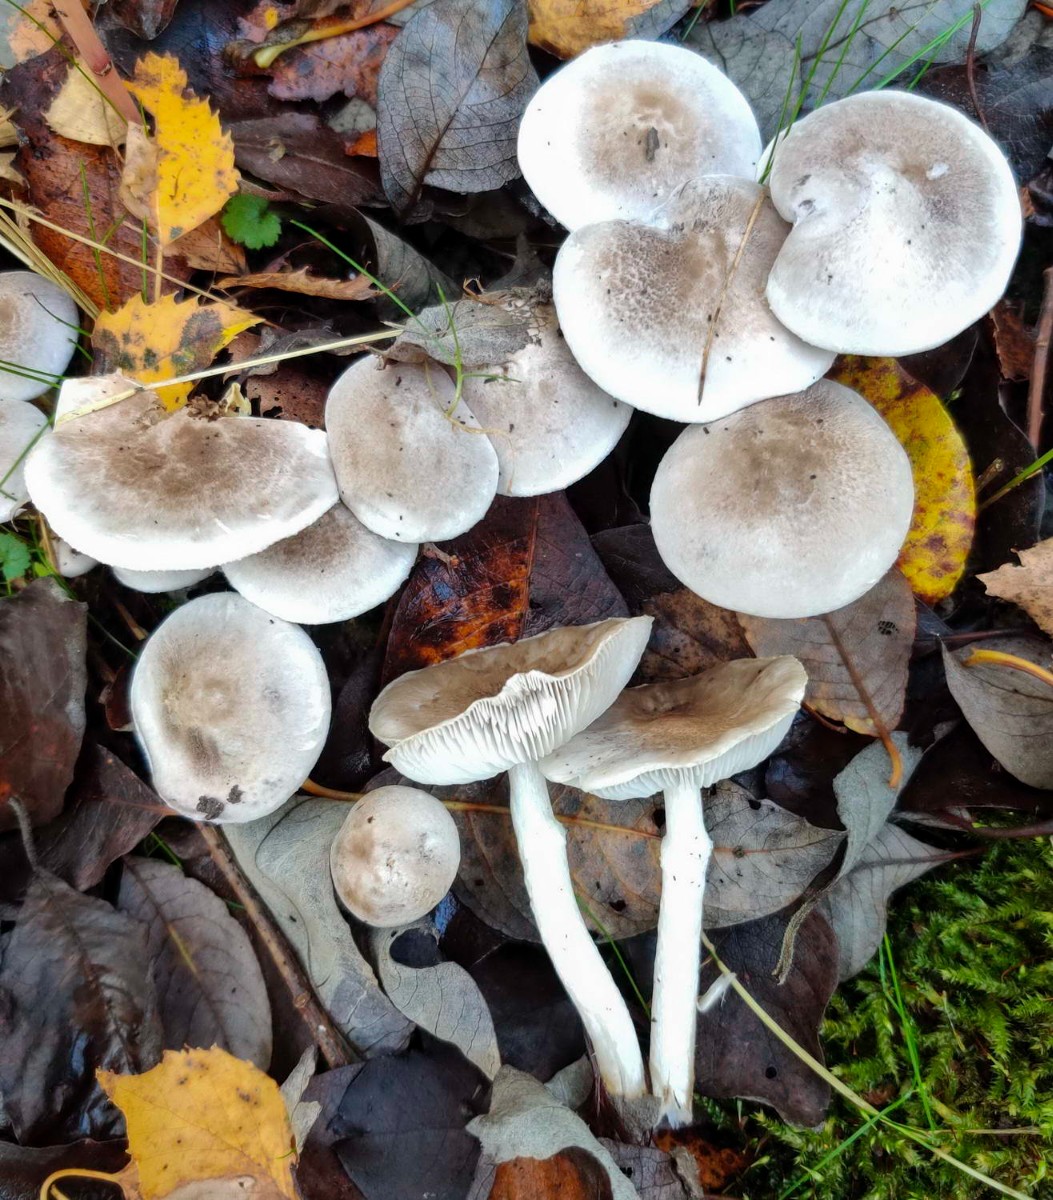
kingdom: Fungi
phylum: Basidiomycota
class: Agaricomycetes
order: Agaricales
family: Tricholomataceae
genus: Tricholoma
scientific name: Tricholoma cingulatum
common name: ring-ridderhat
